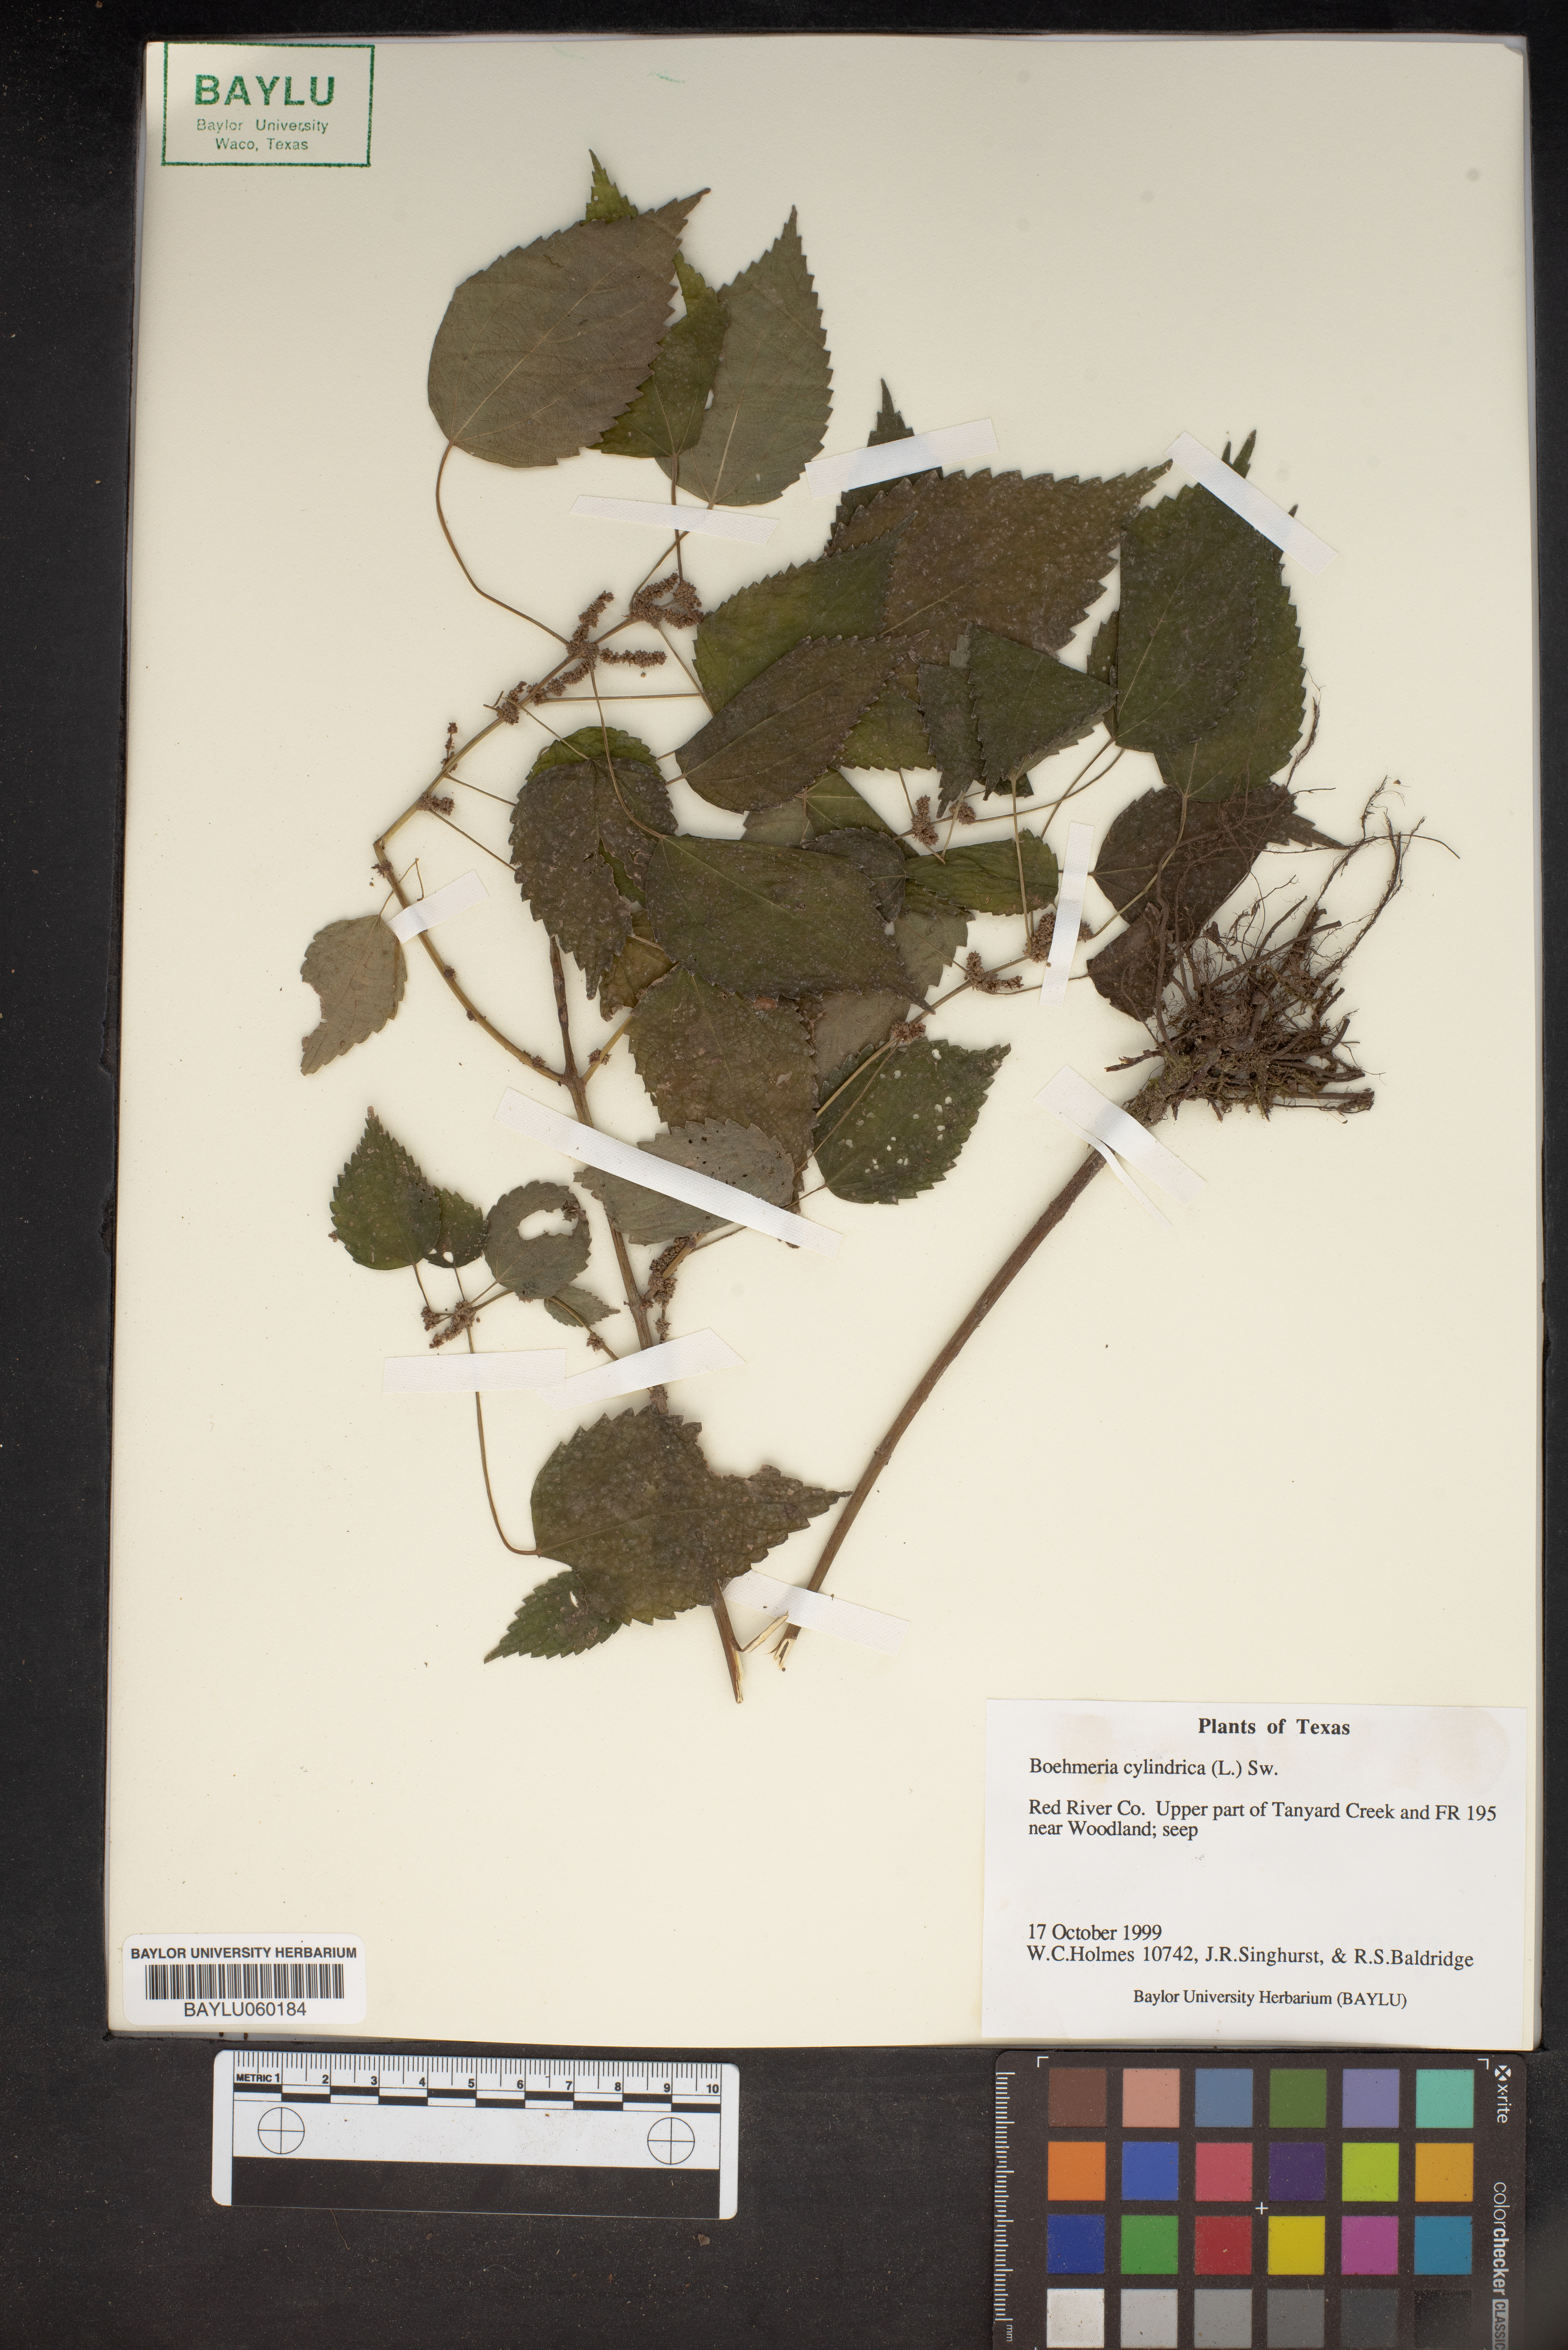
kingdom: Plantae
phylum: Tracheophyta
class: Magnoliopsida
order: Rosales
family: Urticaceae
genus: Boehmeria
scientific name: Boehmeria cylindrica
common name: Bog-hemp
